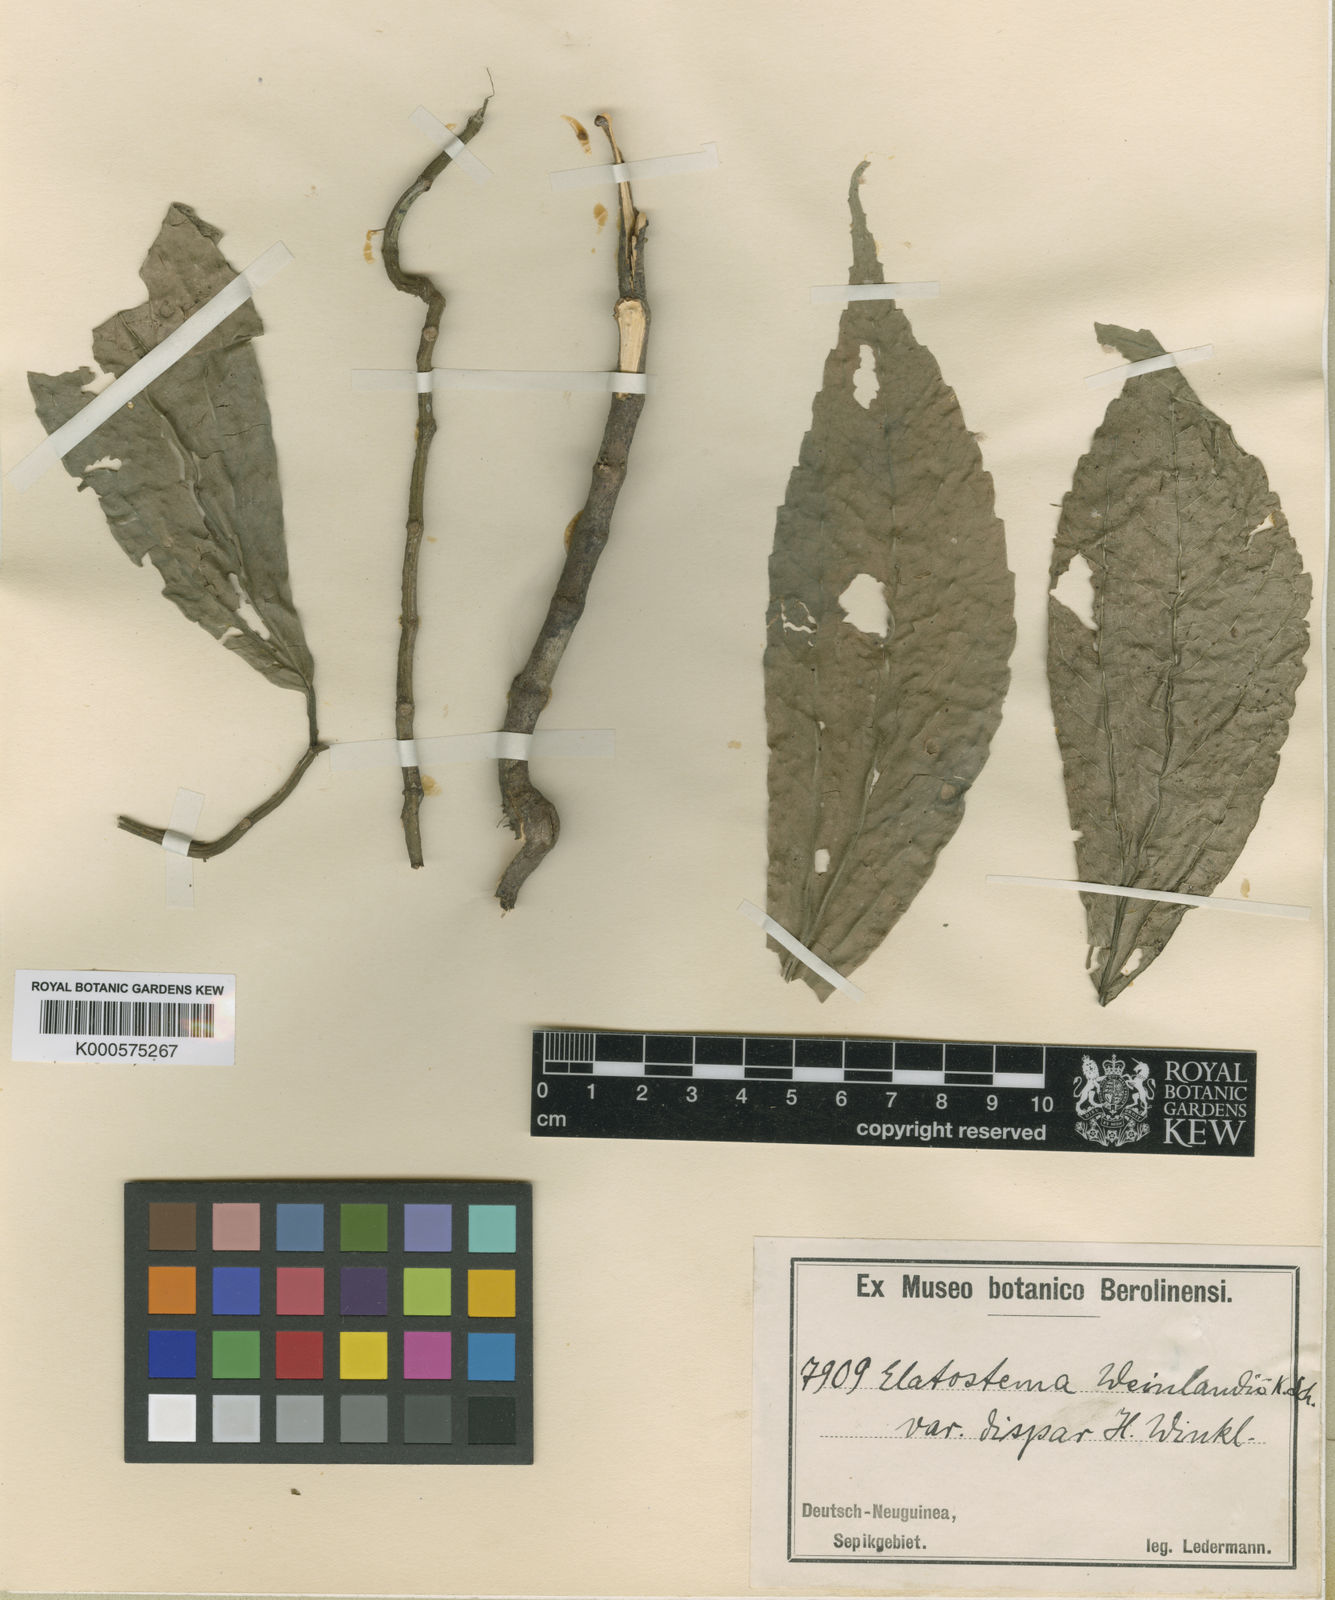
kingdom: Plantae
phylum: Tracheophyta
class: Magnoliopsida
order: Rosales
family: Urticaceae
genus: Elatostema
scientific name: Elatostema weinlandii
